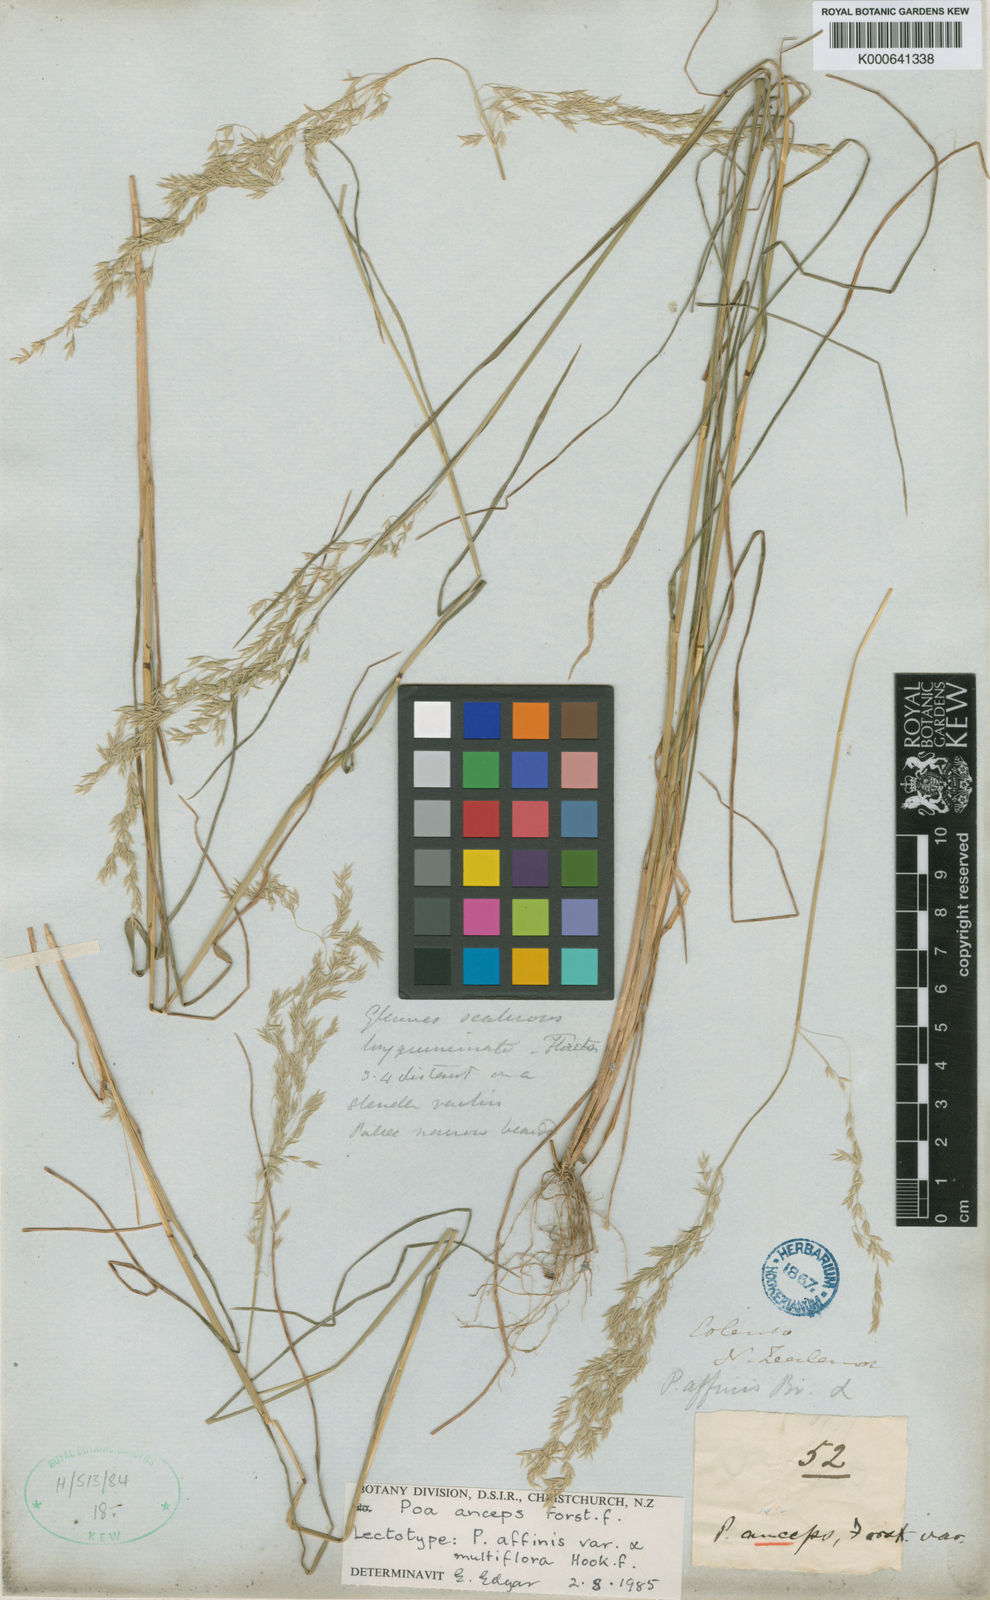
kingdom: Plantae
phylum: Tracheophyta
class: Liliopsida
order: Poales
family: Poaceae
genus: Poa
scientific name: Poa anceps
